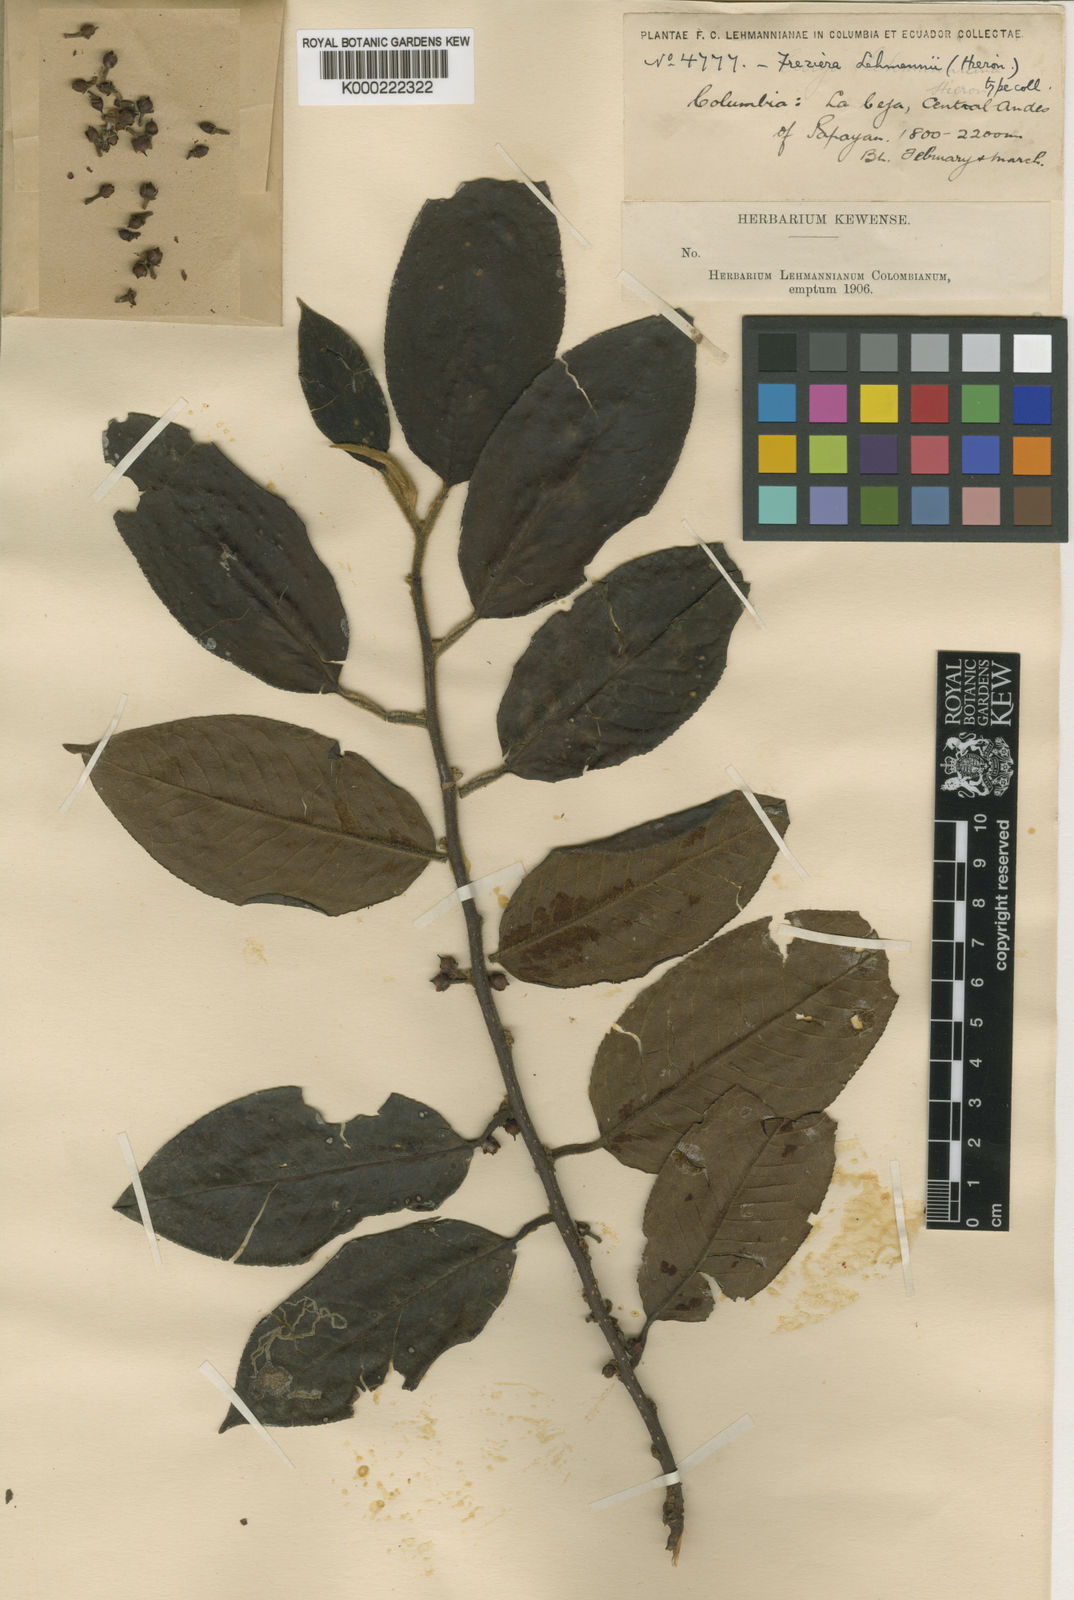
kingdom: Plantae
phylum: Tracheophyta
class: Magnoliopsida
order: Ericales
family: Pentaphylacaceae
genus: Freziera
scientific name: Freziera nervosa
